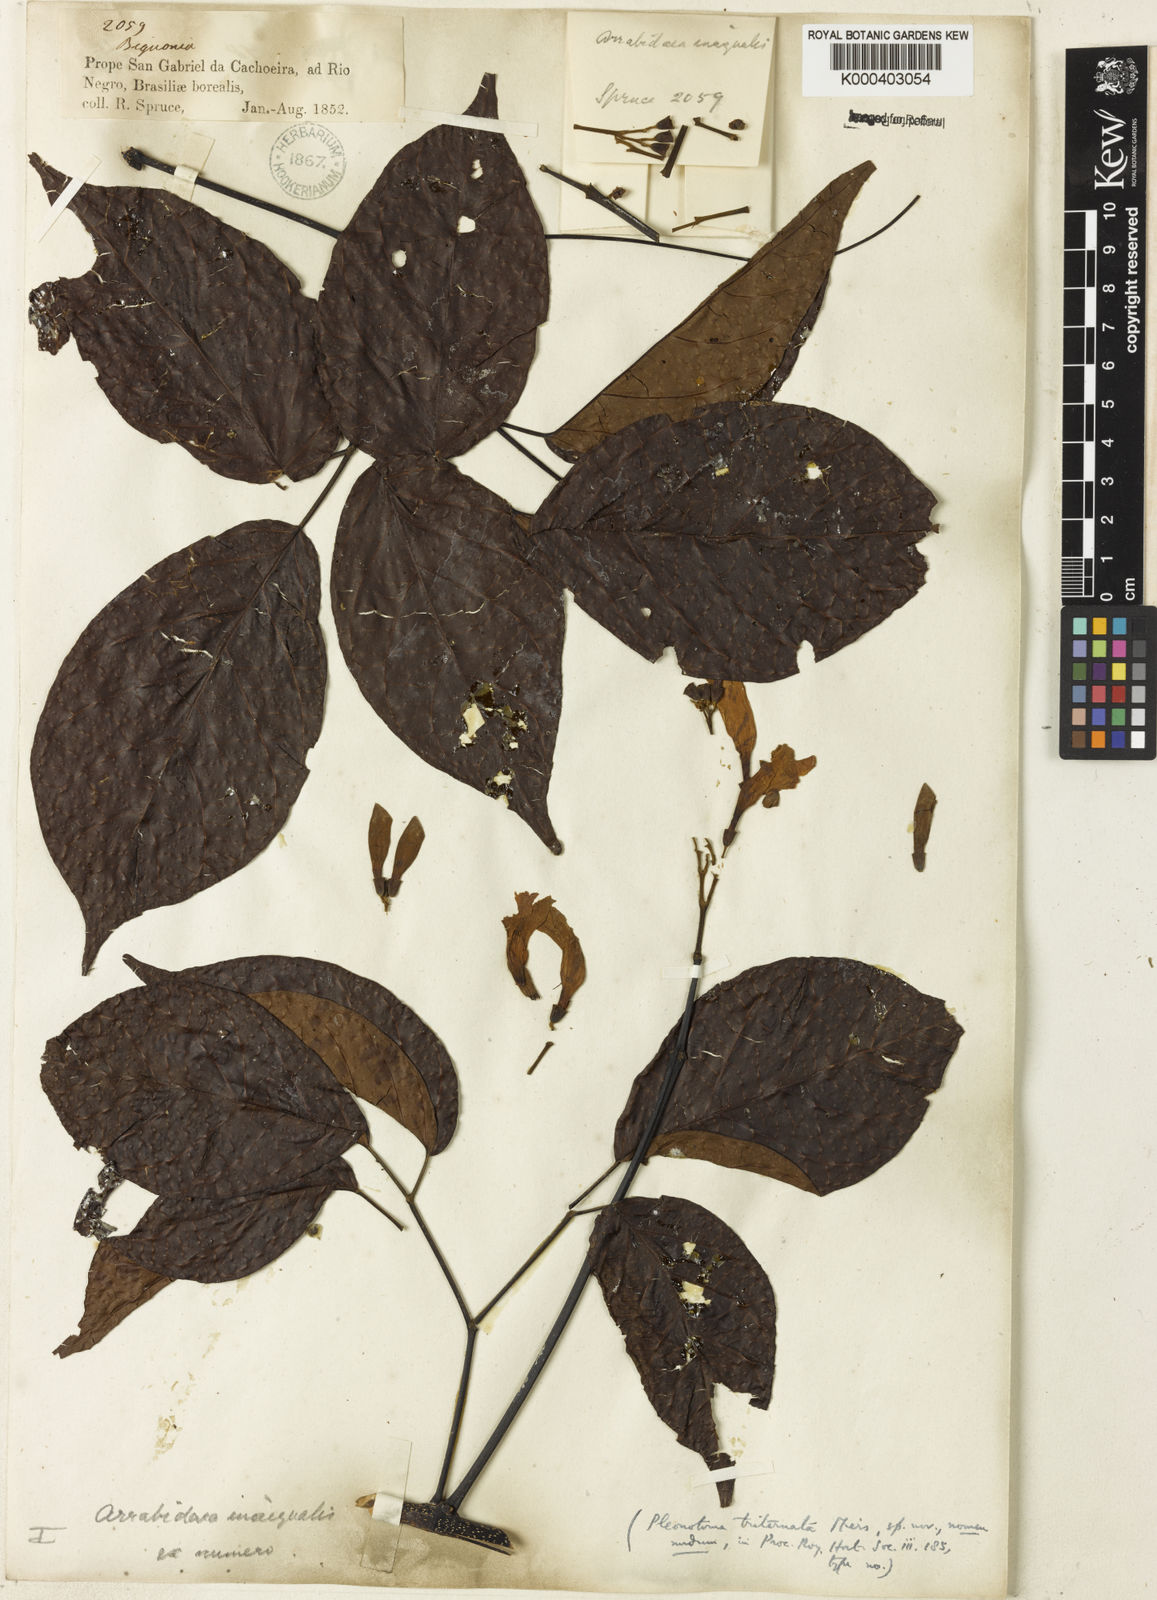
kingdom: Plantae
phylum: Tracheophyta
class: Magnoliopsida
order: Lamiales
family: Bignoniaceae
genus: Cuspidaria
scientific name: Cuspidaria inaequalis
